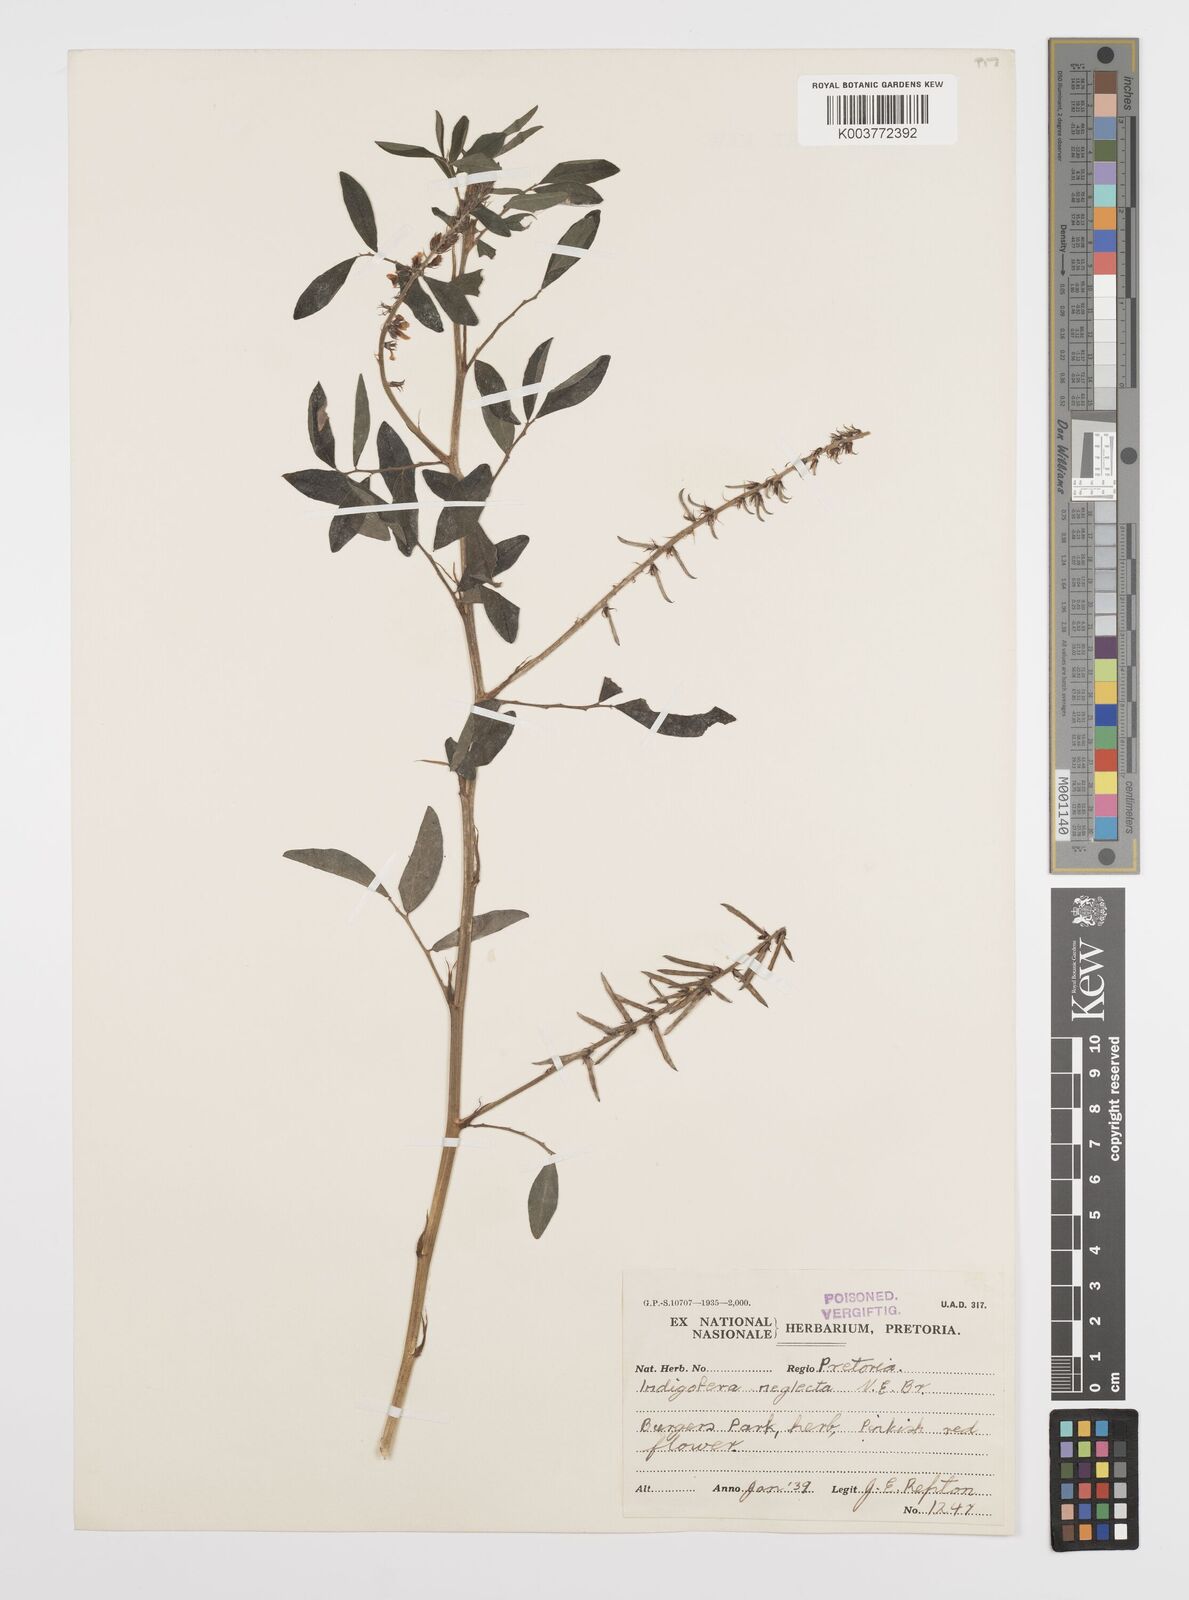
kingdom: Plantae
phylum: Tracheophyta
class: Magnoliopsida
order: Fabales
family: Fabaceae
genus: Indigofera
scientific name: Indigofera spicata
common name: Creeping indigo
